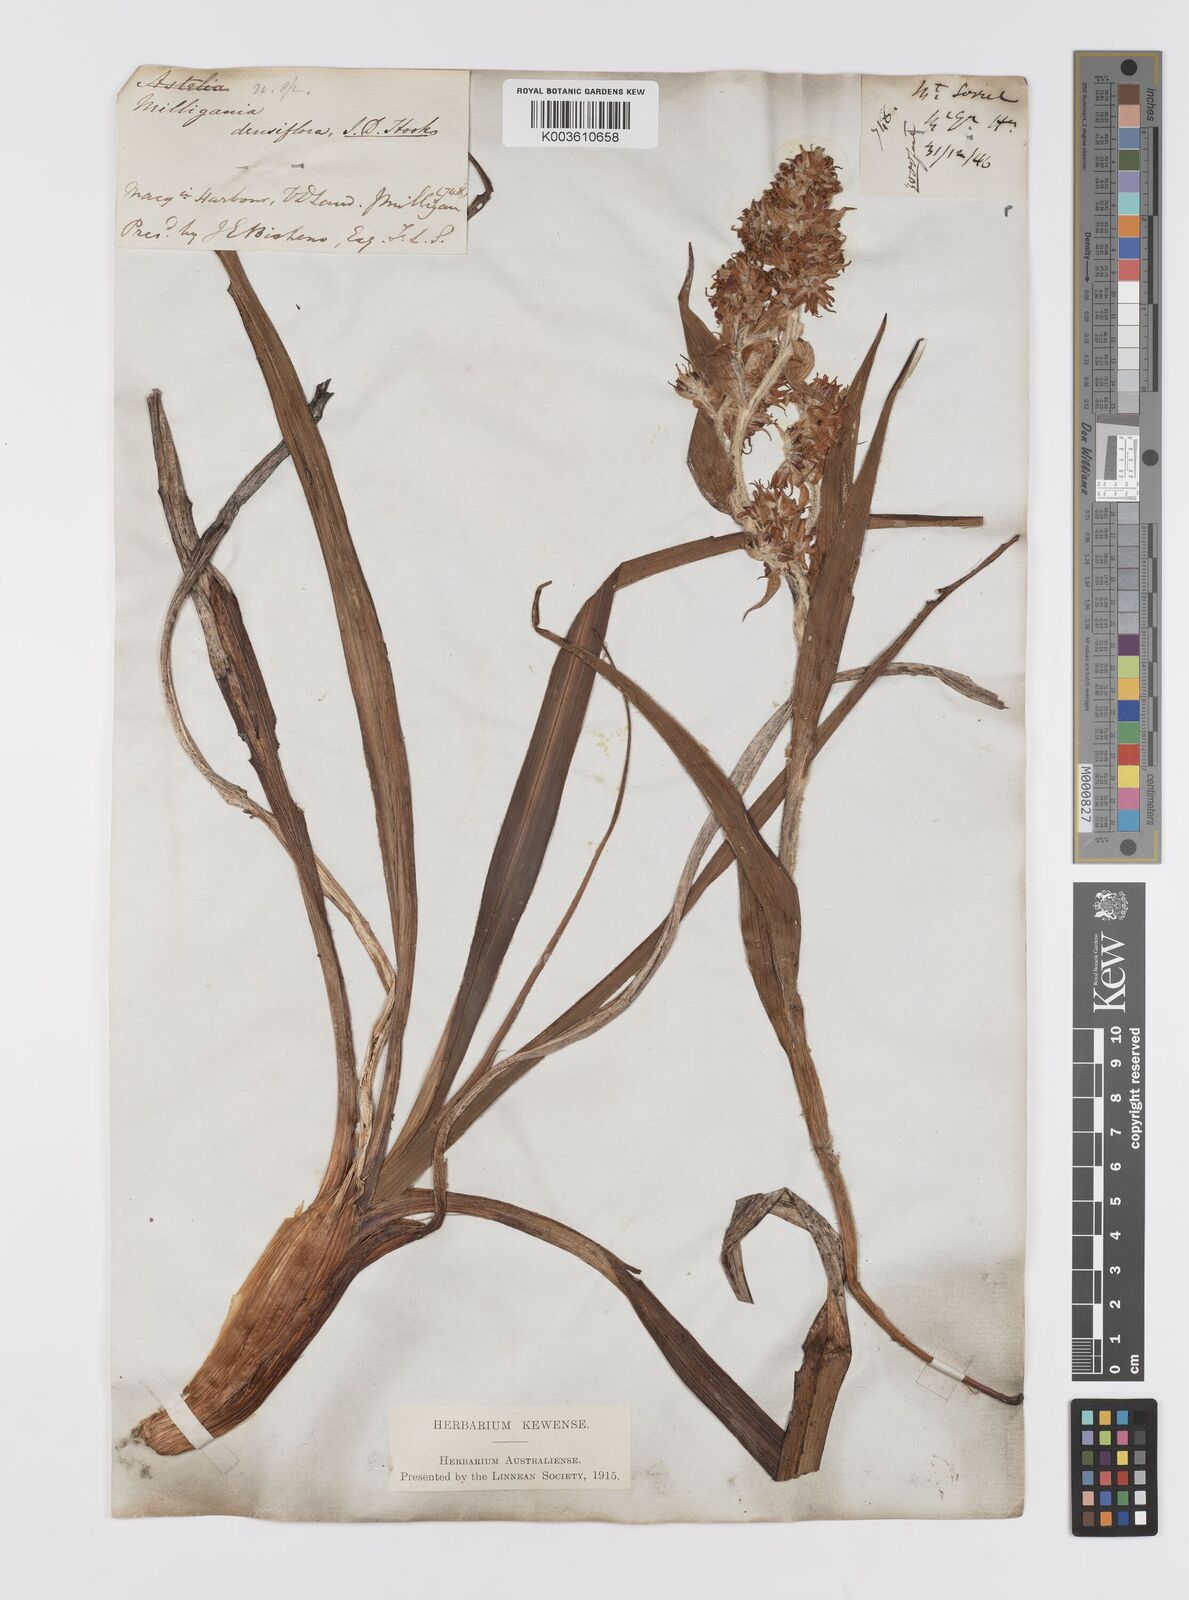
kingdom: Plantae
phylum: Tracheophyta
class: Liliopsida
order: Asparagales
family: Asteliaceae
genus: Milligania
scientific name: Milligania densiflora
